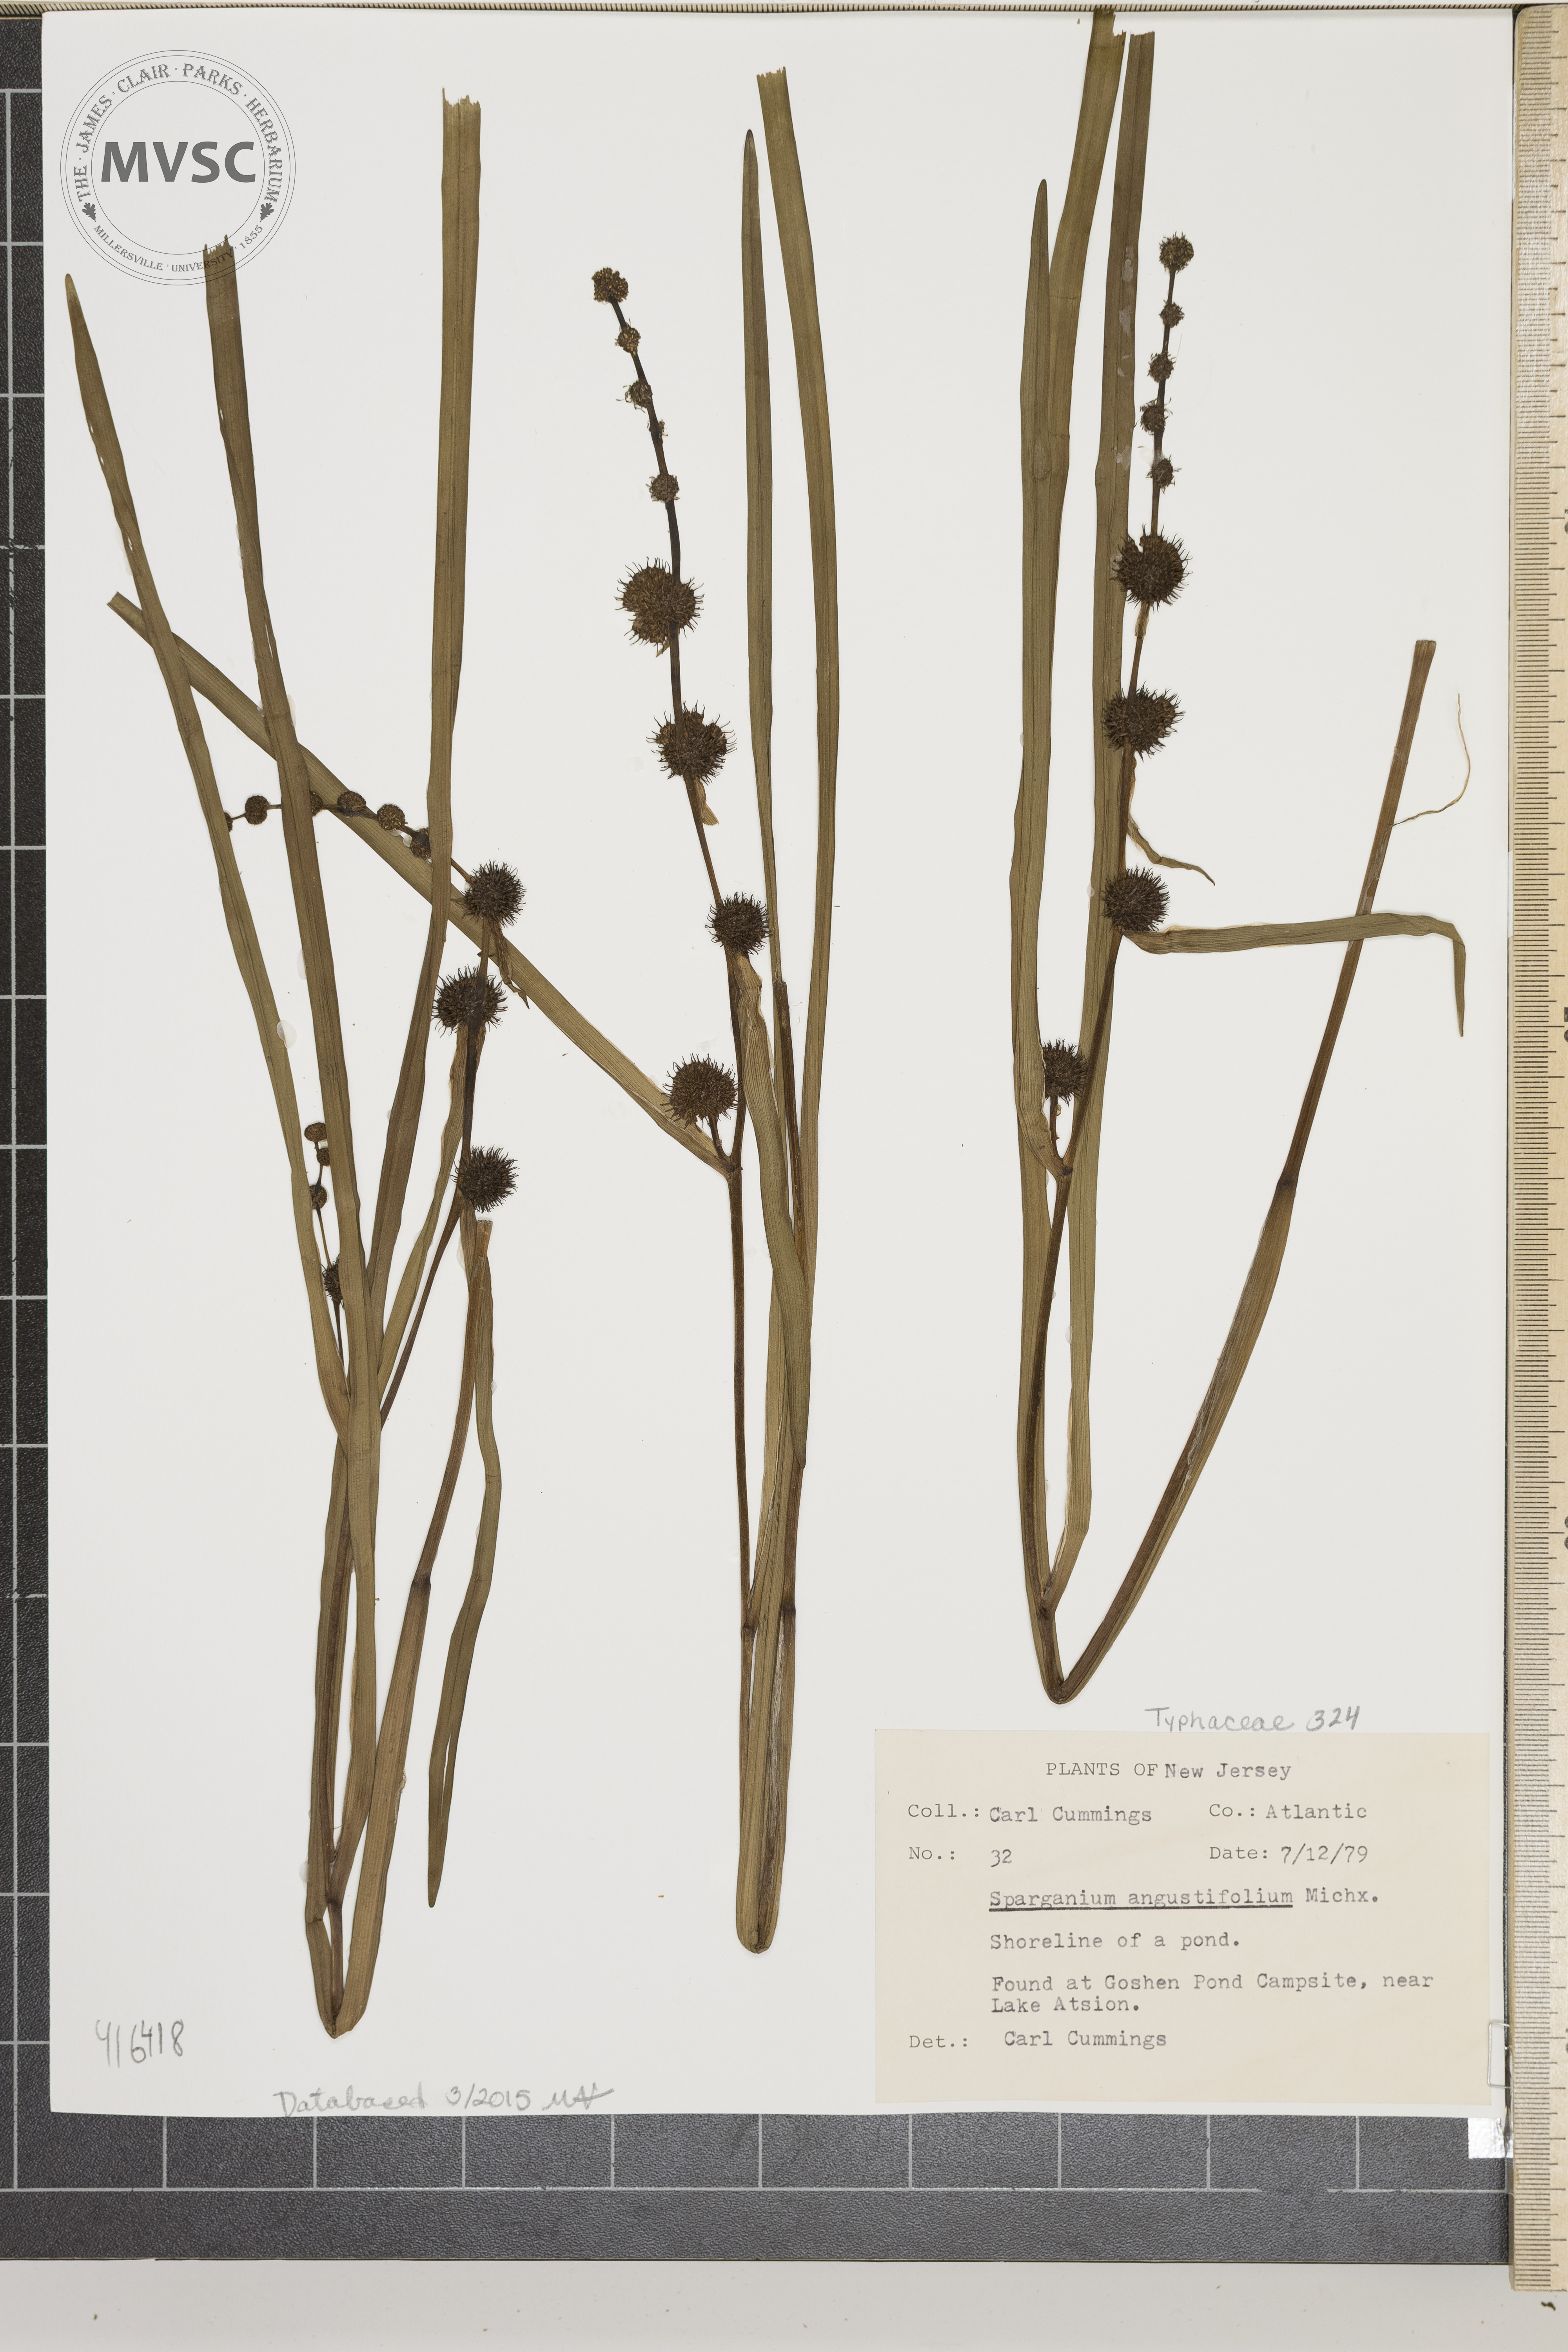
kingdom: Plantae
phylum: Tracheophyta
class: Liliopsida
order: Poales
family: Typhaceae
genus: Sparganium
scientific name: Sparganium americanum
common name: American burreed
